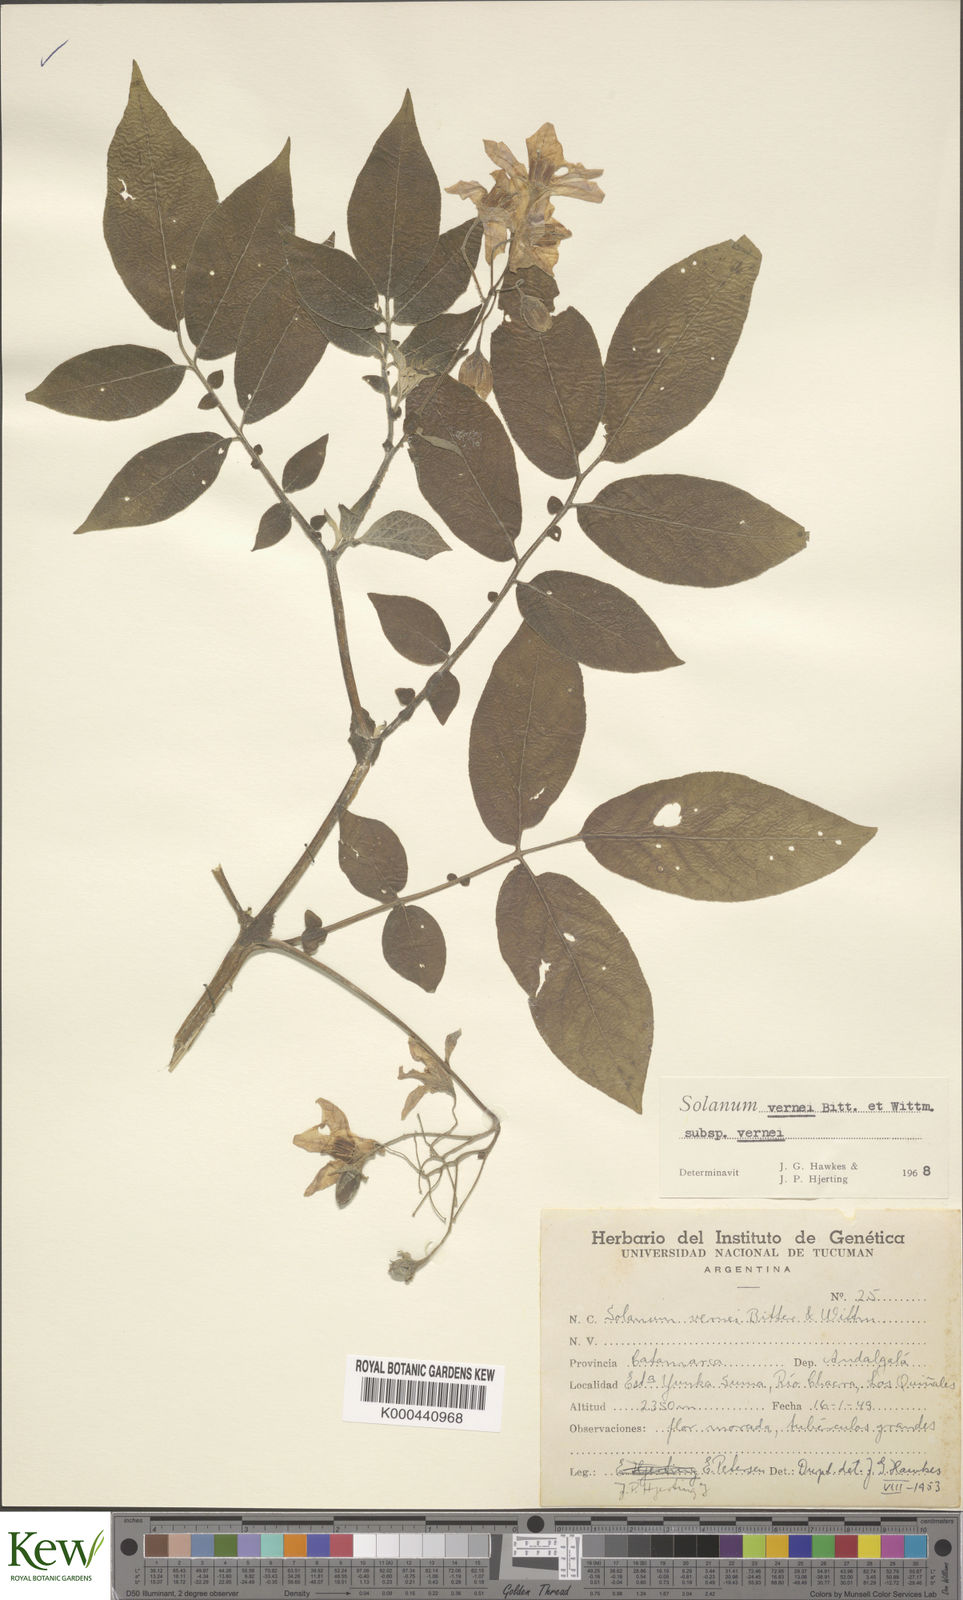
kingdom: Plantae
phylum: Tracheophyta
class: Magnoliopsida
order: Solanales
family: Solanaceae
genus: Solanum
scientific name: Solanum vernei
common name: Purple potato
